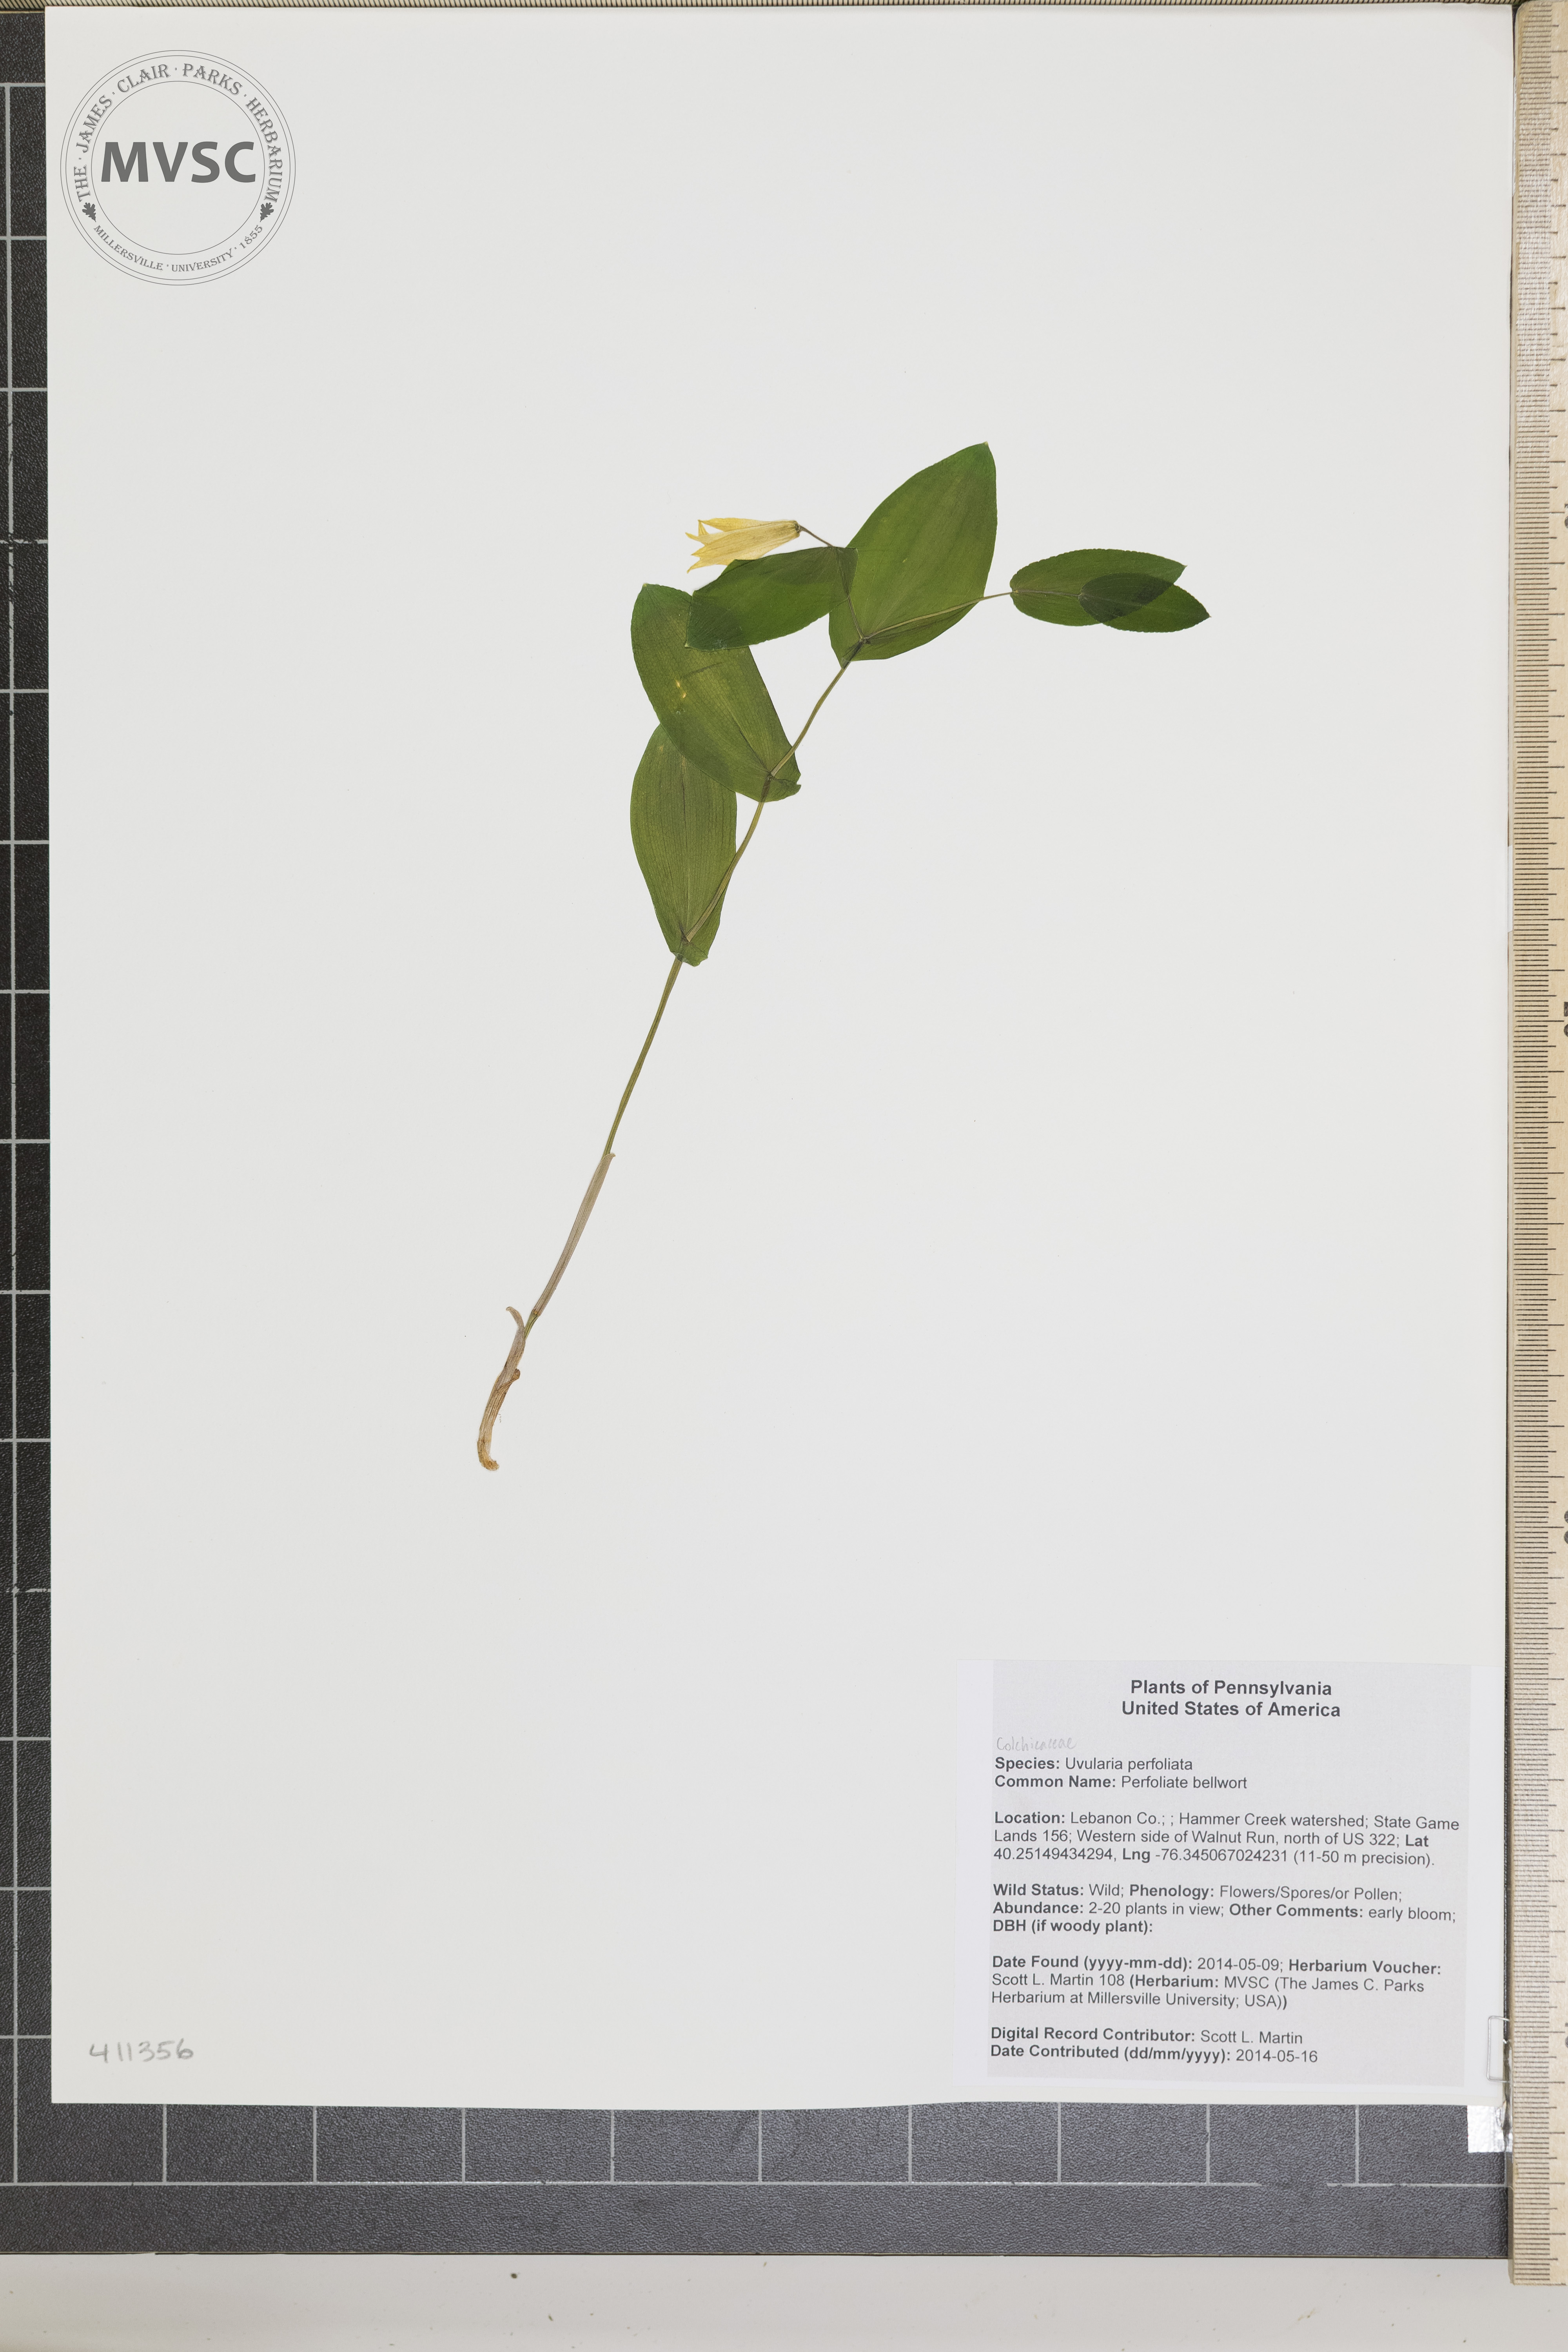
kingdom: Plantae
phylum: Tracheophyta
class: Liliopsida
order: Liliales
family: Colchicaceae
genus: Uvularia
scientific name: Uvularia perfoliata
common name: Perfoliate bellwort
